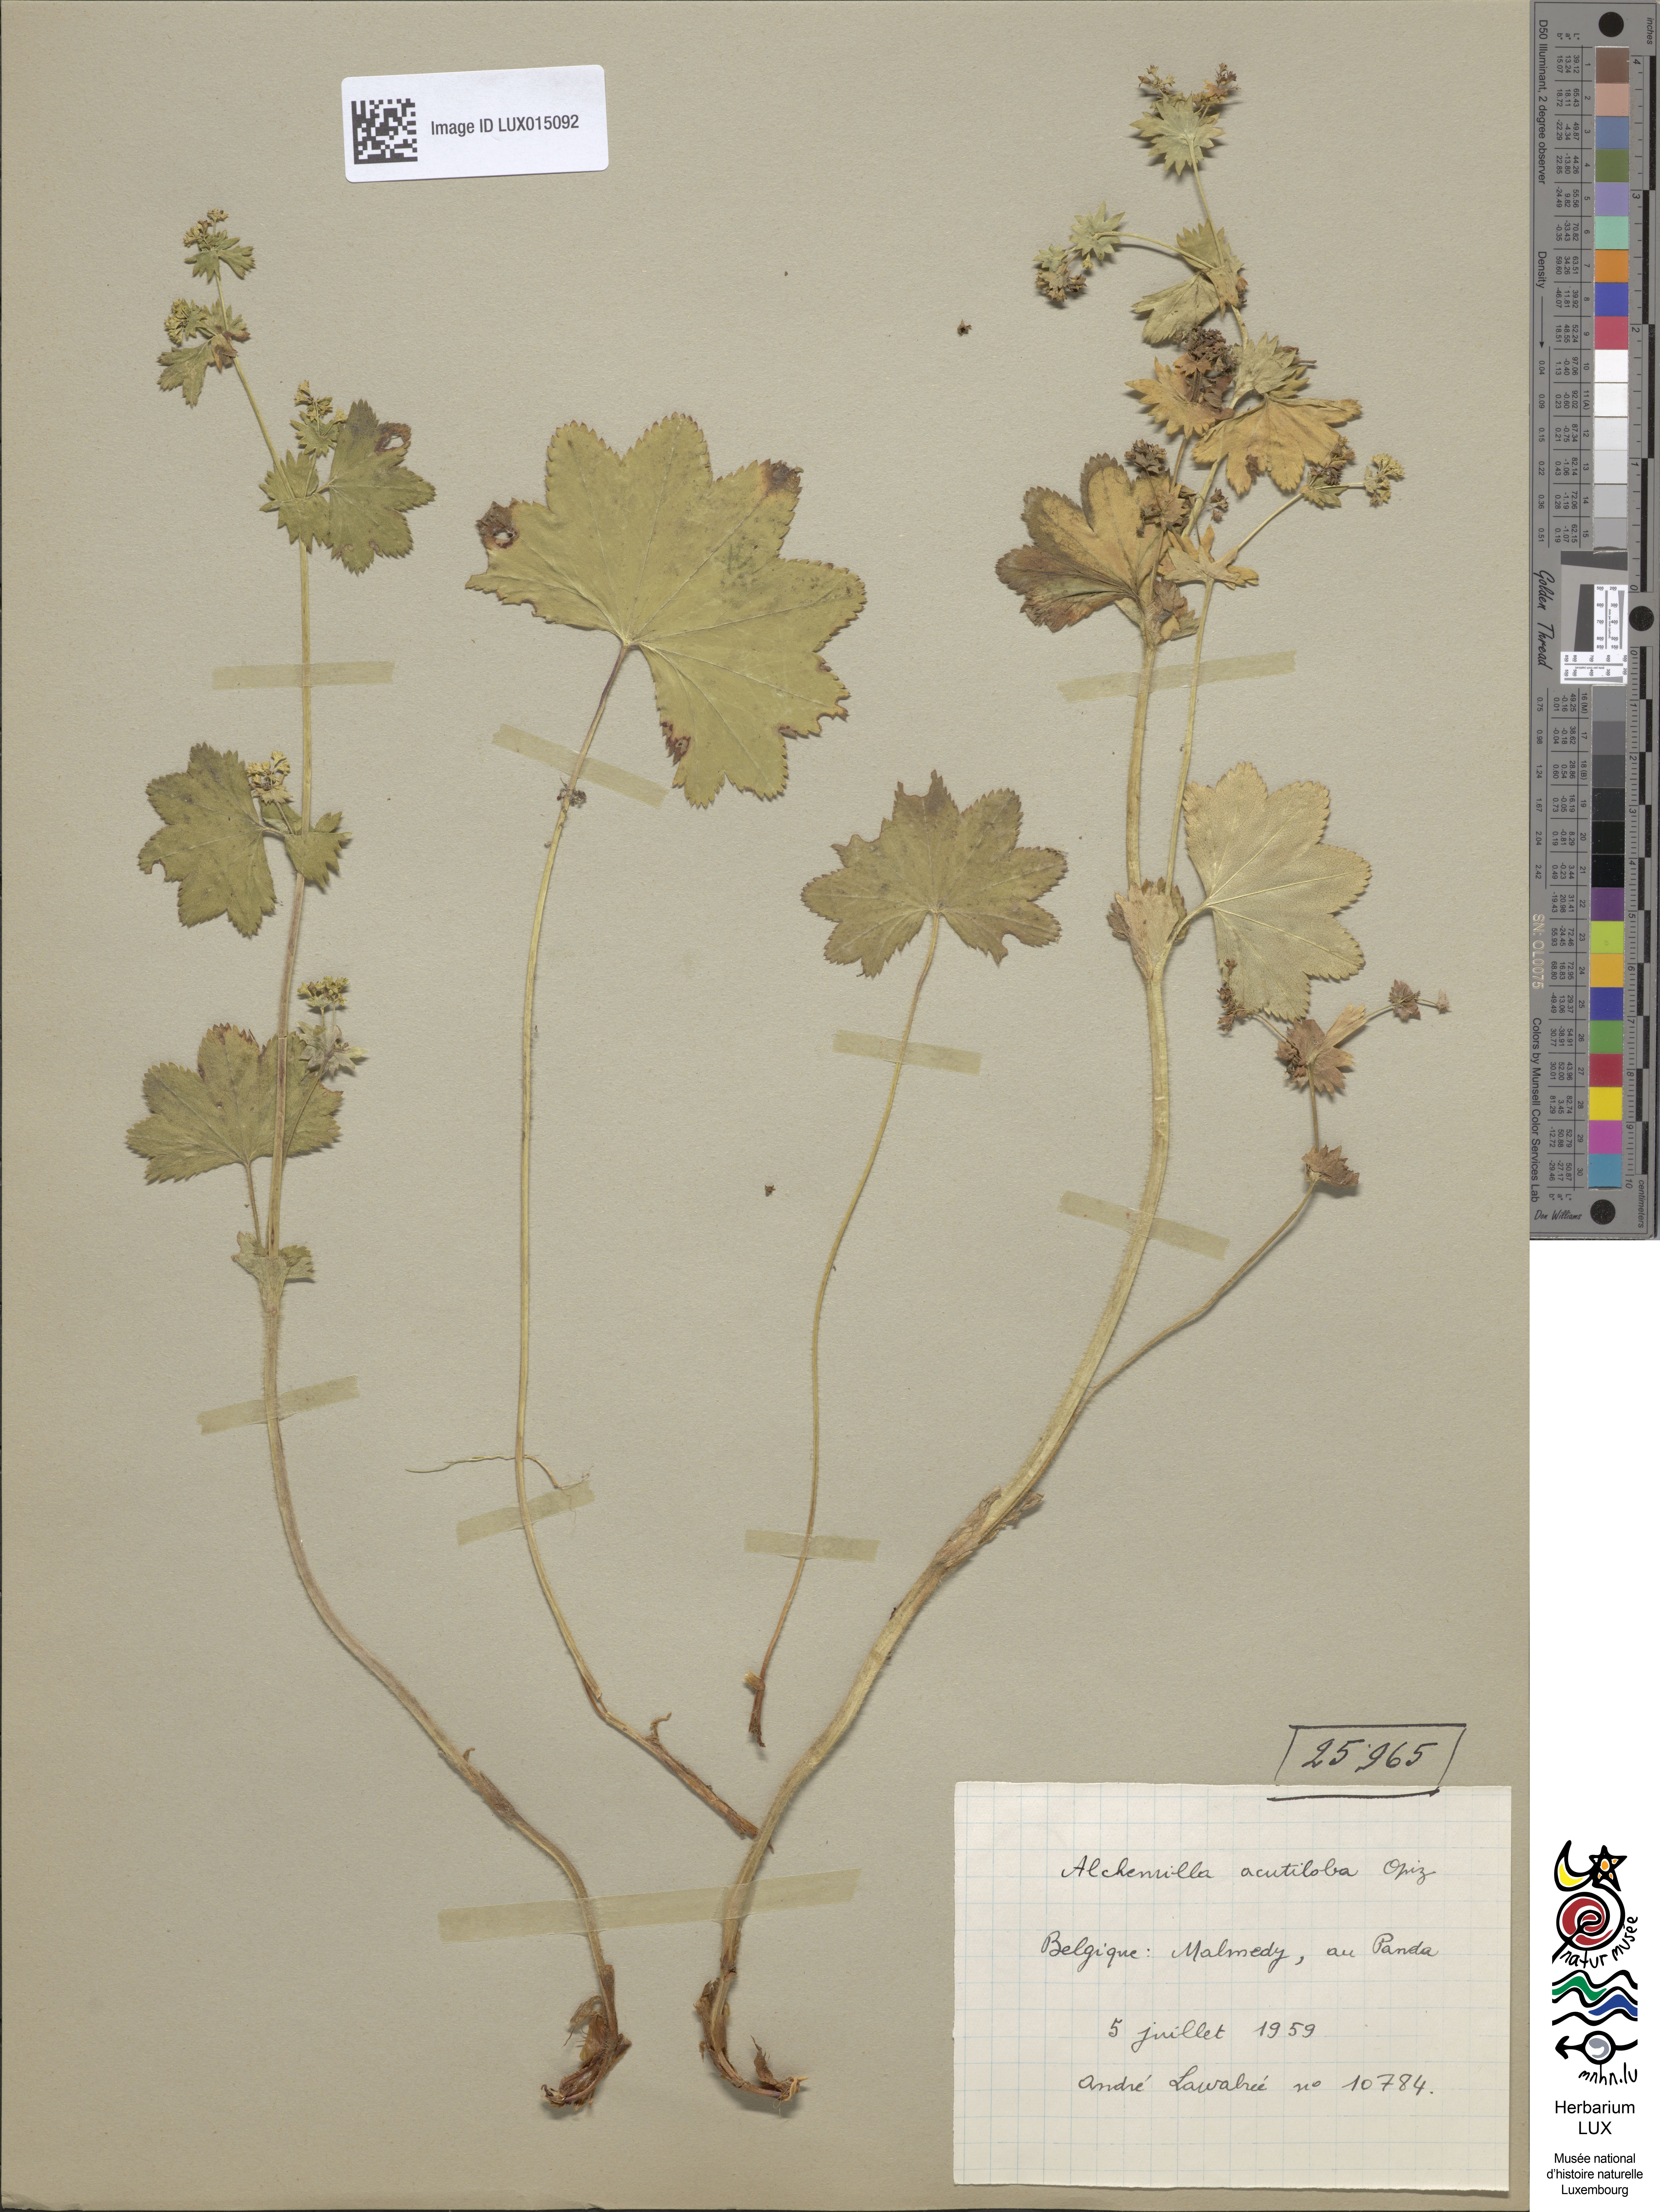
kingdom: Plantae
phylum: Tracheophyta
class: Magnoliopsida
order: Rosales
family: Rosaceae
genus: Alchemilla
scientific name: Alchemilla vulgaris
